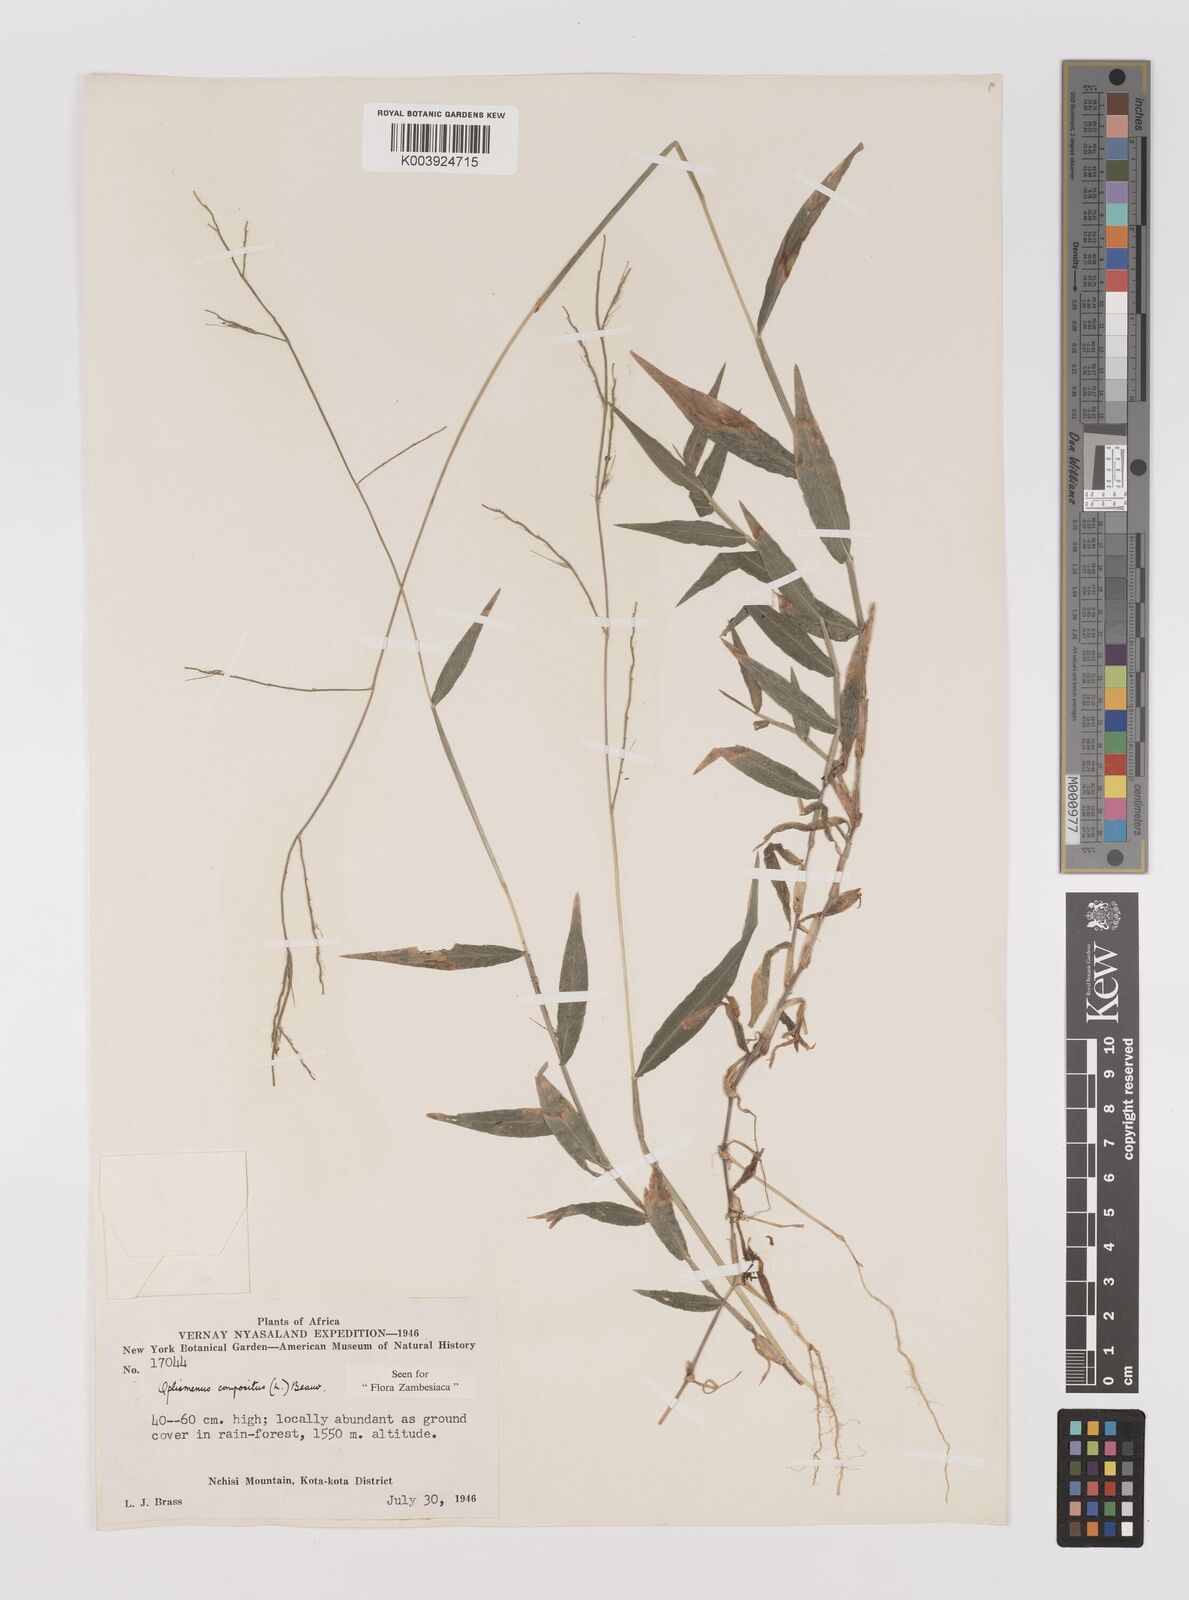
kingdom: Plantae
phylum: Tracheophyta
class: Liliopsida
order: Poales
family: Poaceae
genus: Oplismenus
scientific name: Oplismenus compositus
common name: Running mountain grass
